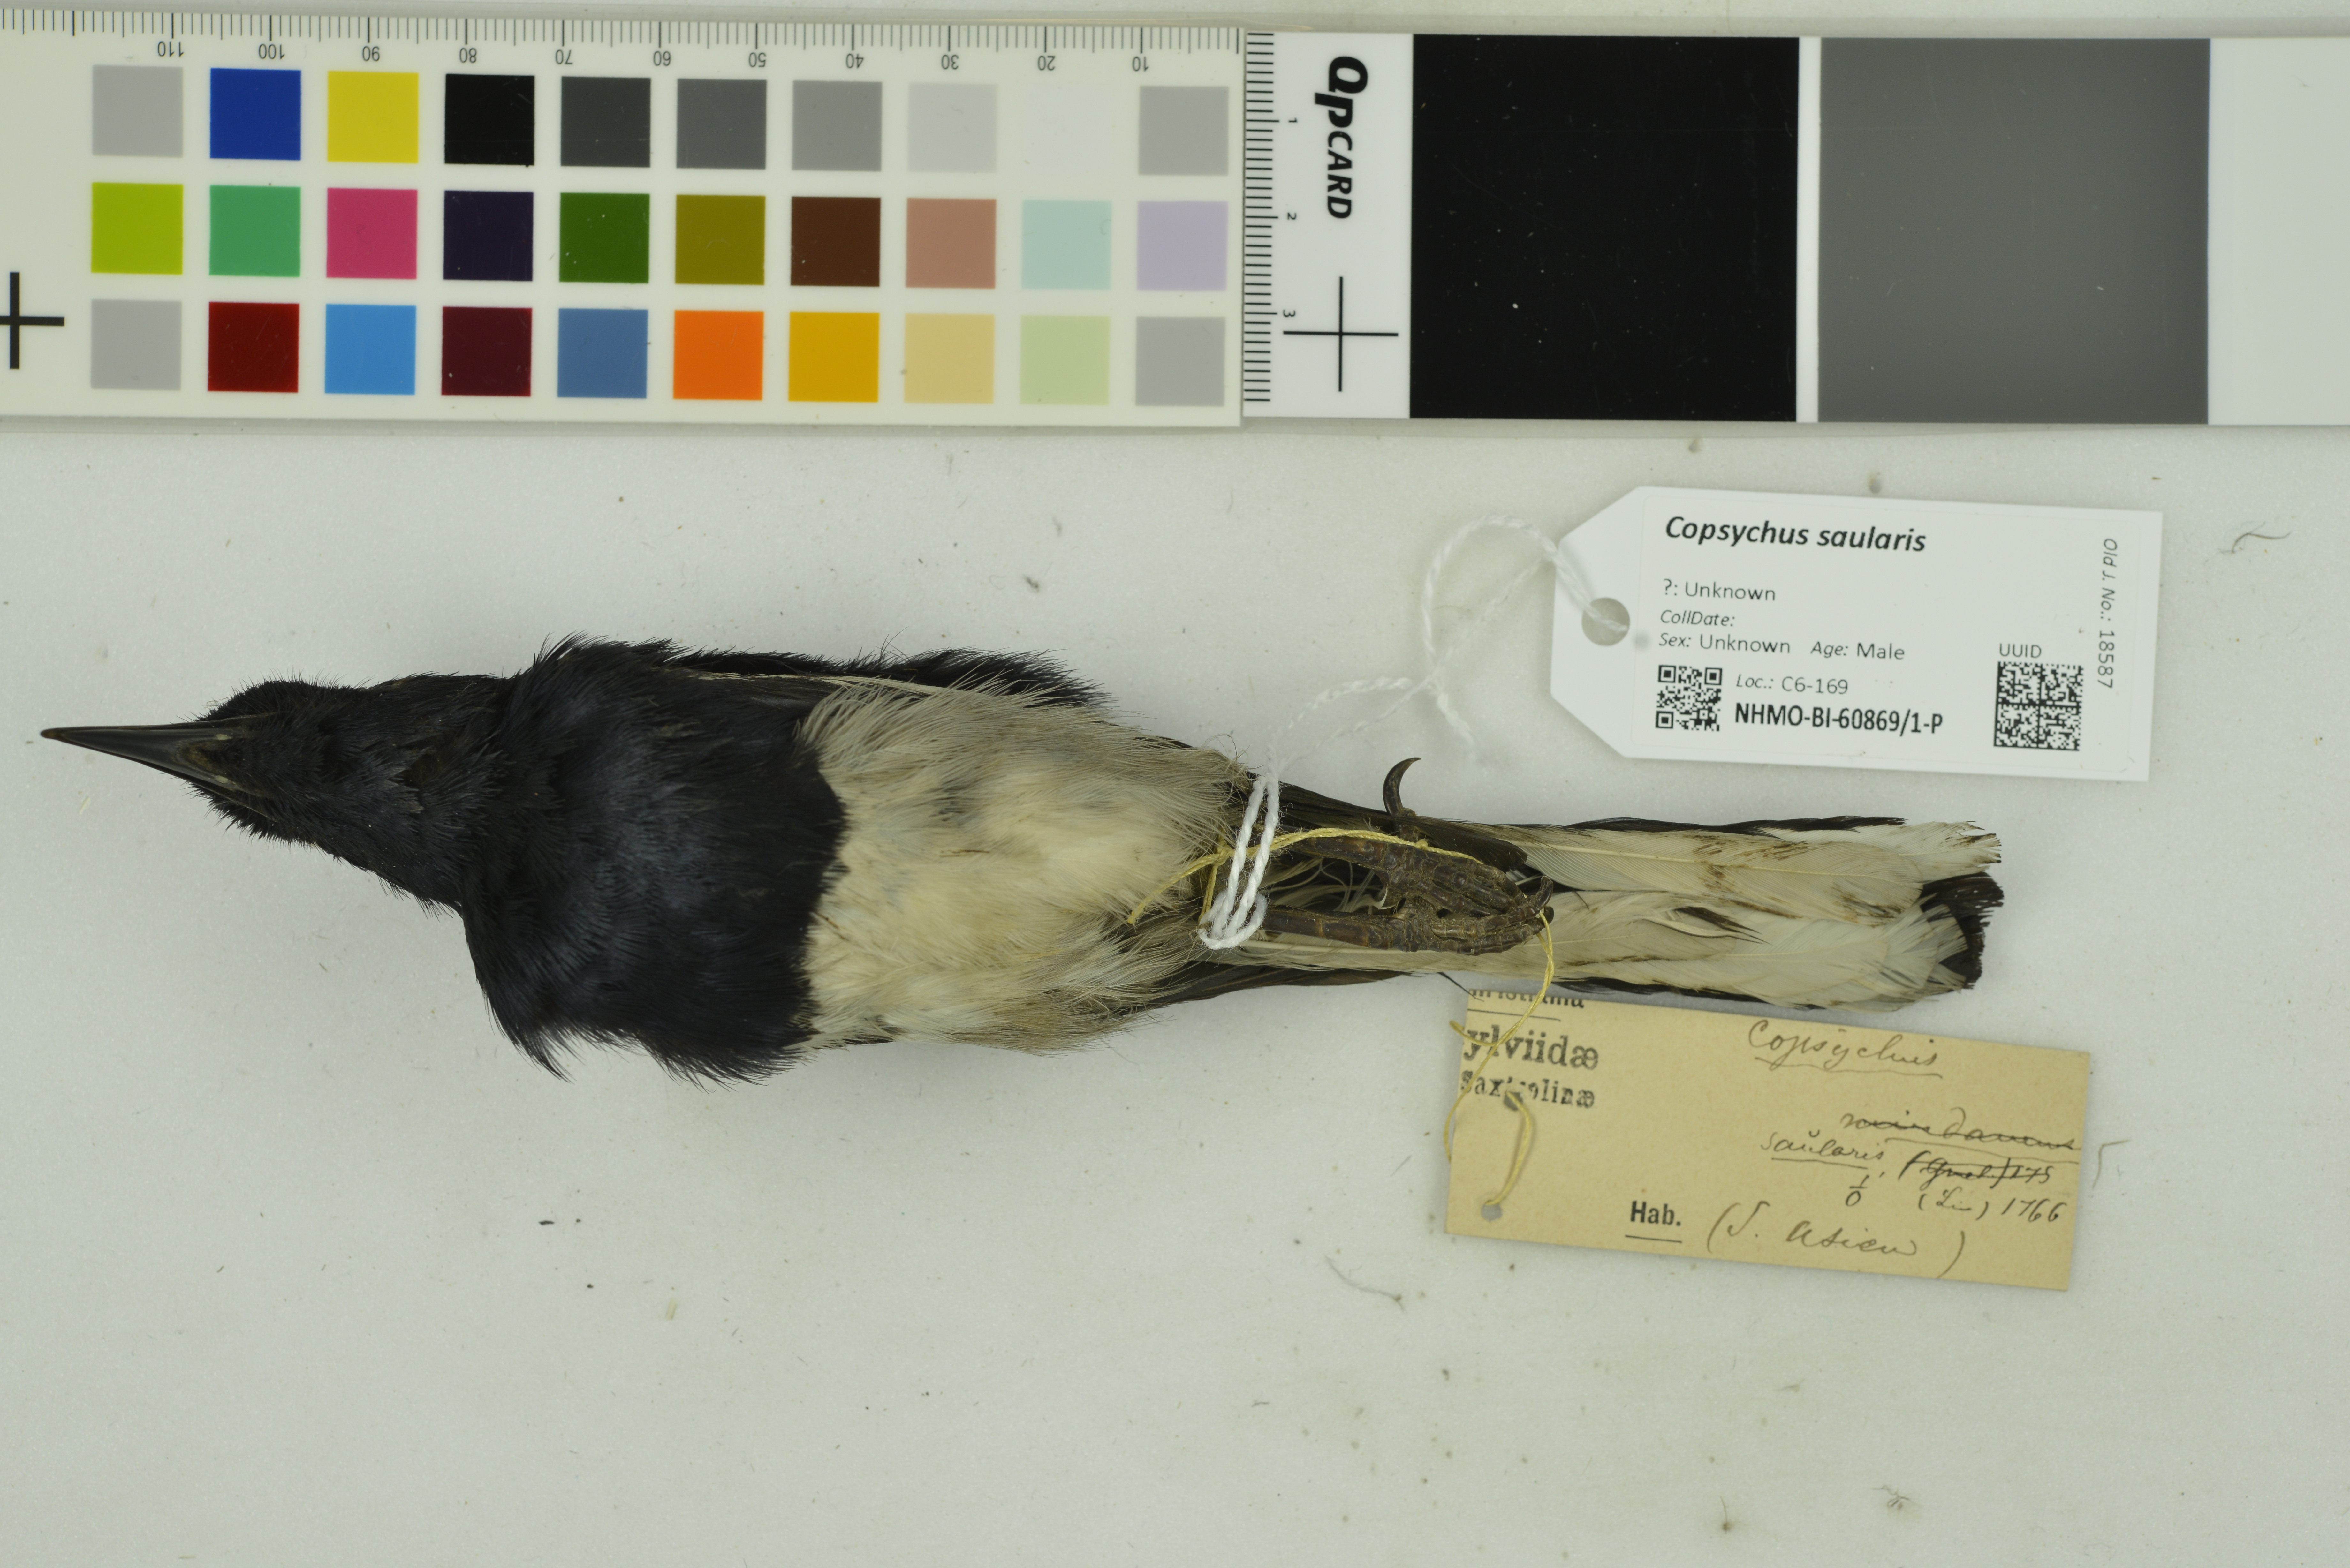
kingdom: Animalia
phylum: Chordata
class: Aves
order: Passeriformes
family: Muscicapidae
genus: Copsychus
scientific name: Copsychus saularis
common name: Oriental magpie-robin
